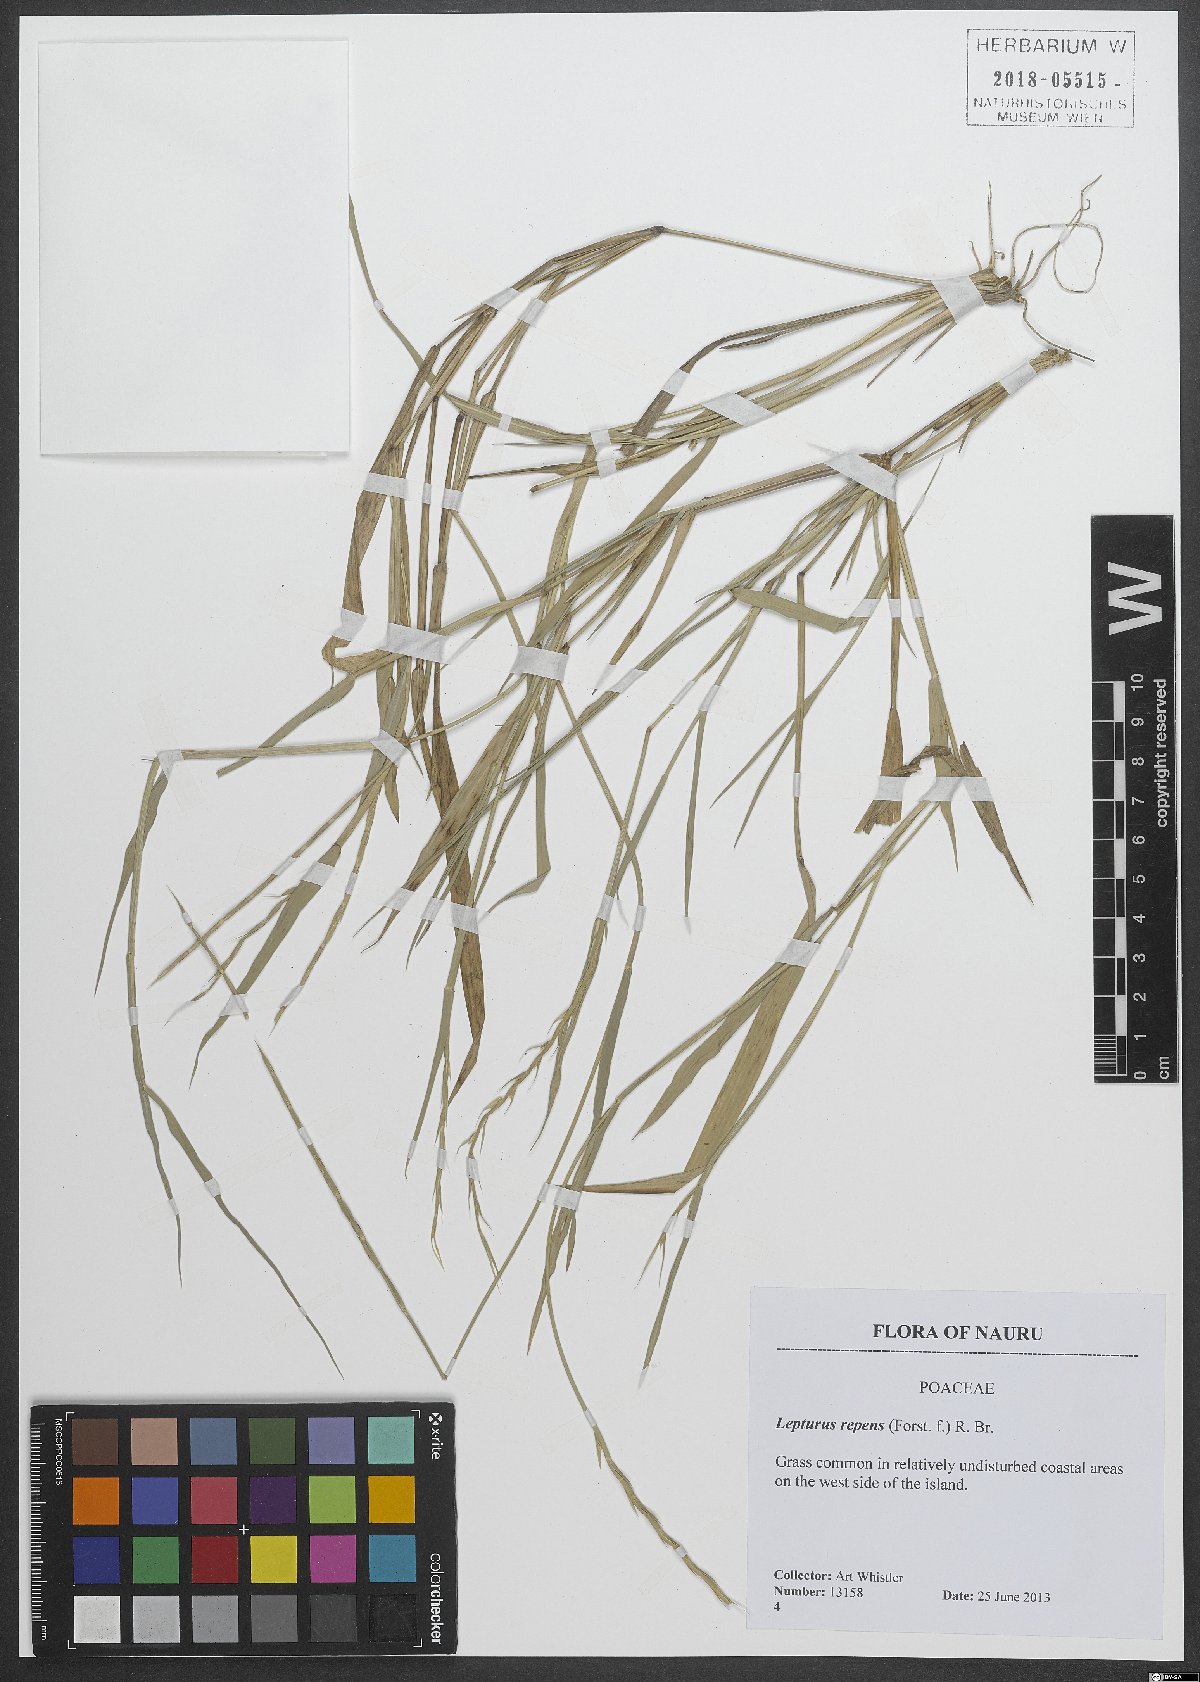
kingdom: Plantae
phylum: Tracheophyta
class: Liliopsida
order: Poales
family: Poaceae
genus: Lepturus
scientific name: Lepturus repens
